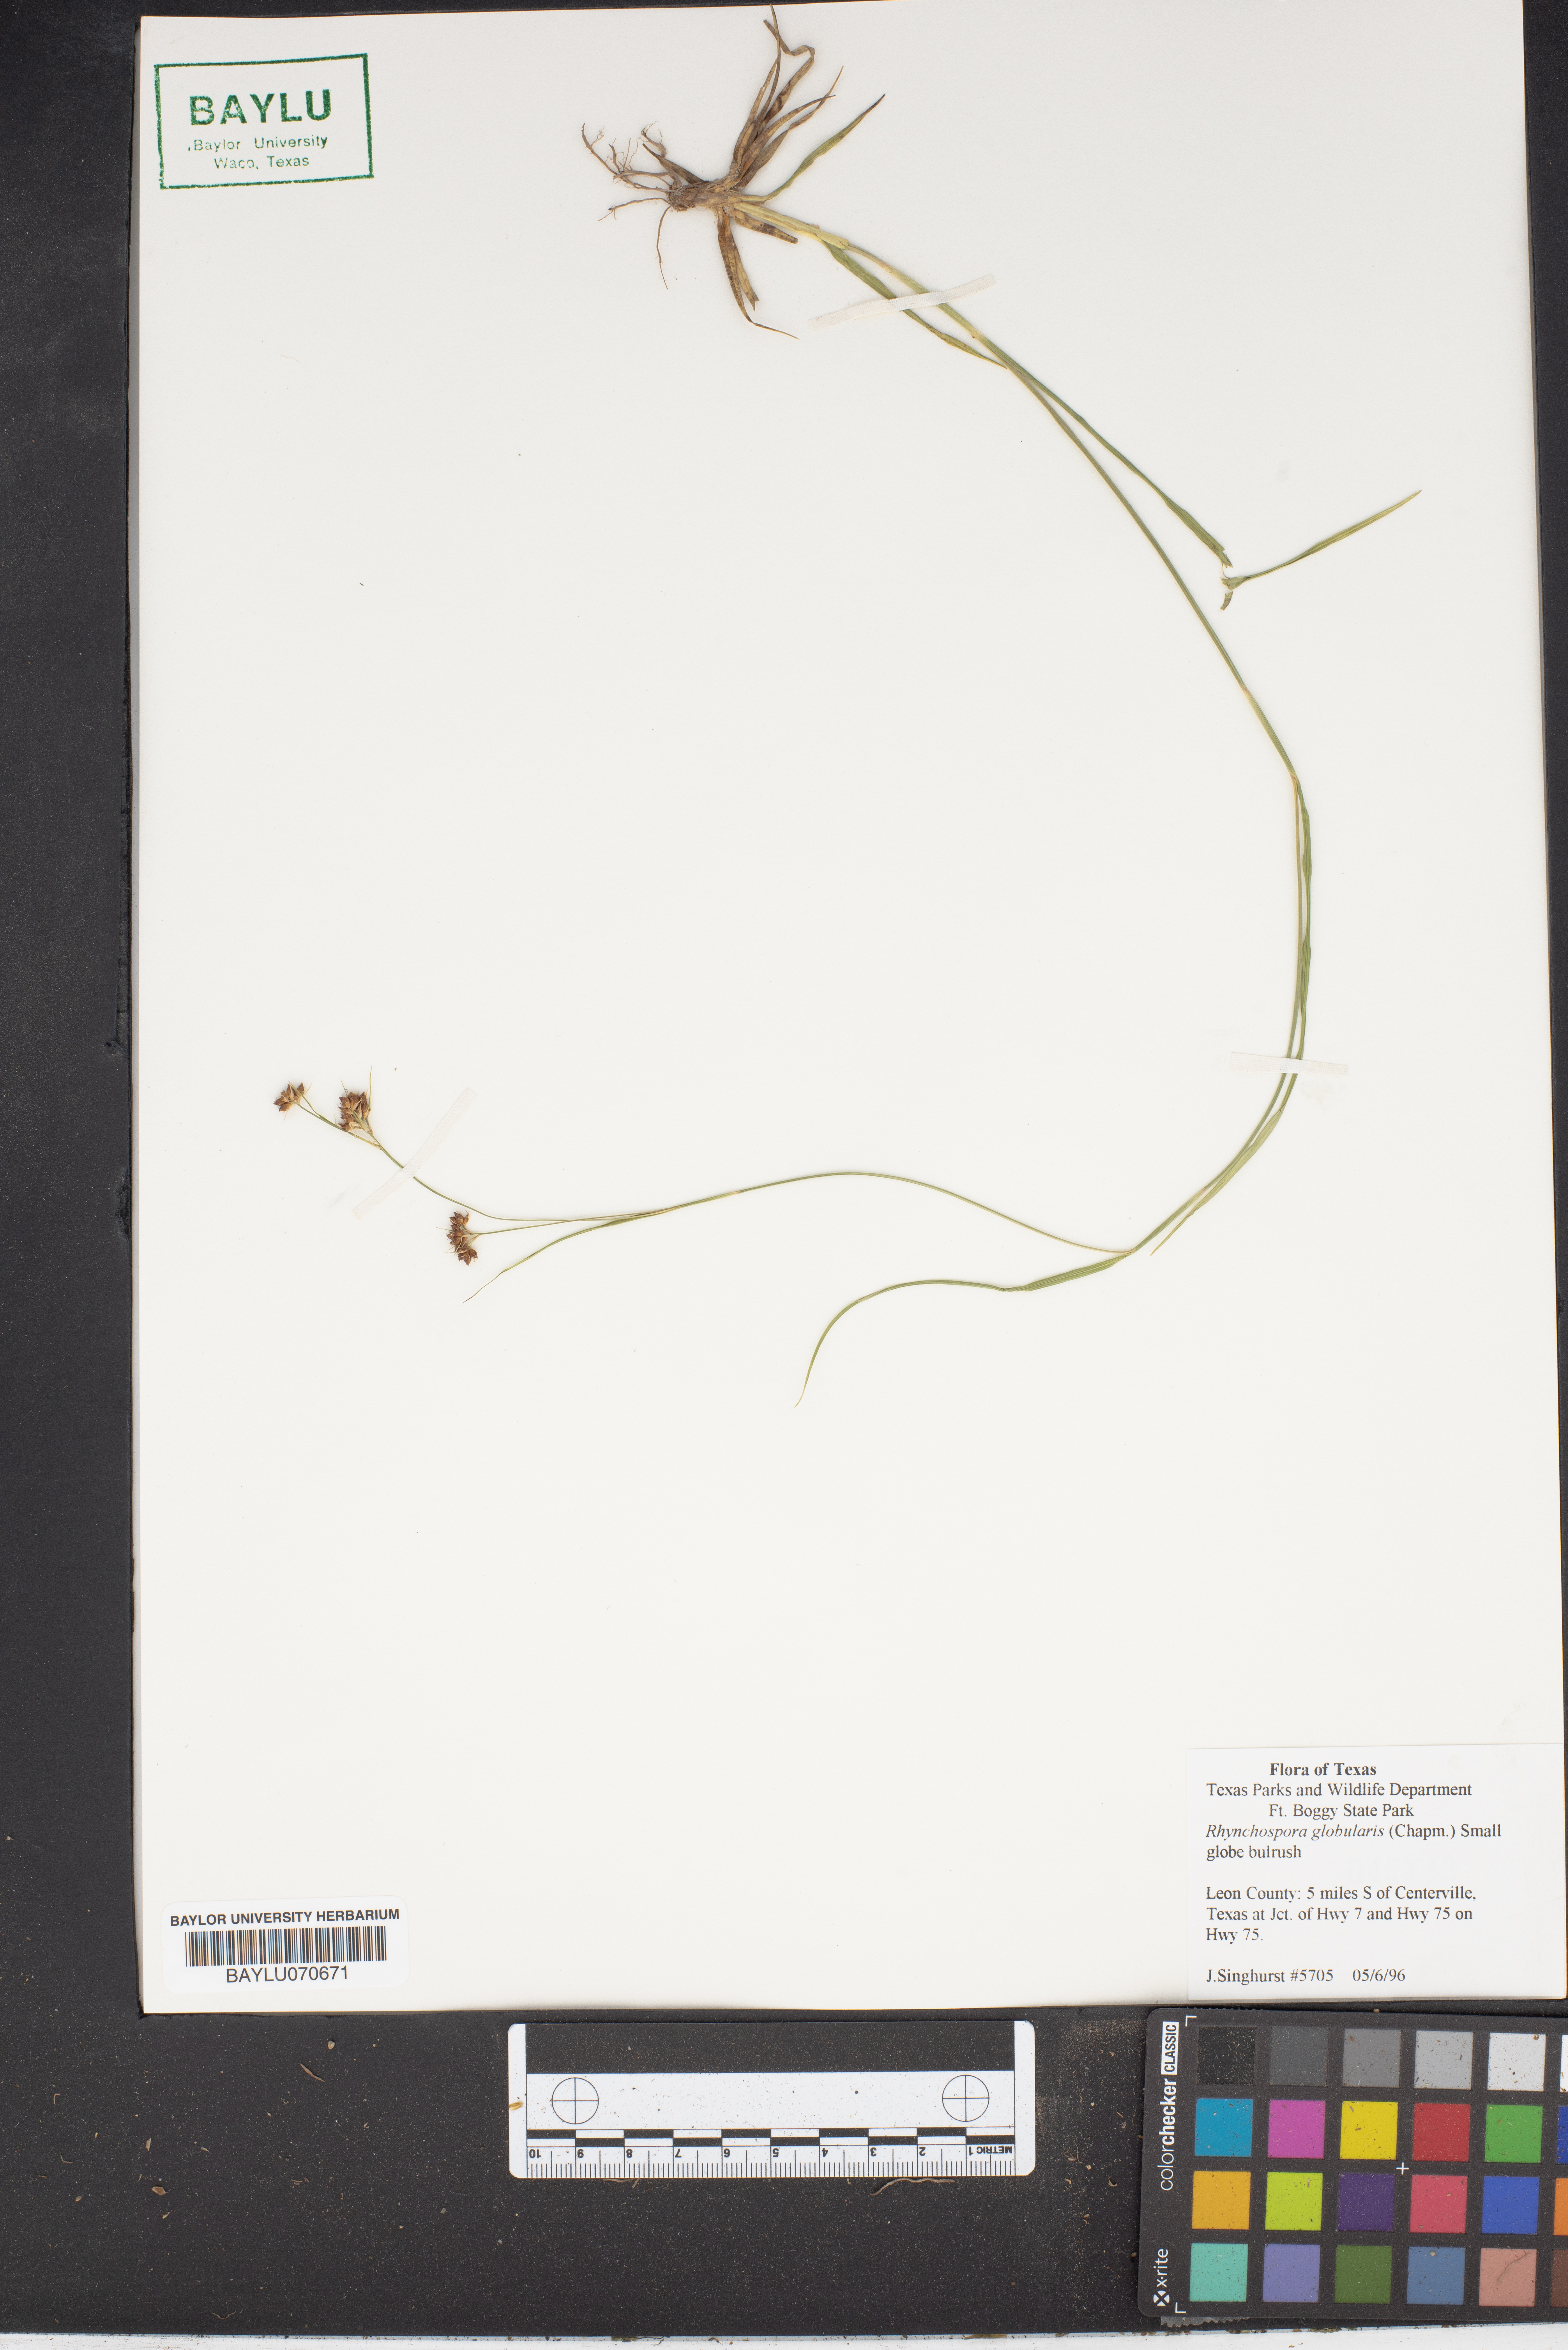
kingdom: Plantae
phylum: Tracheophyta
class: Liliopsida
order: Poales
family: Cyperaceae
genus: Rhynchospora
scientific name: Rhynchospora globularis
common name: Globe beaksedge
